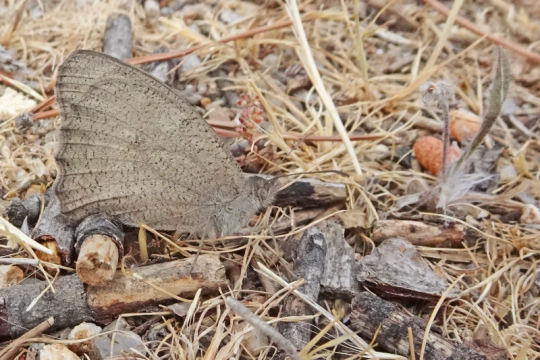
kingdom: Animalia
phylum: Arthropoda
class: Insecta
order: Lepidoptera
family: Nymphalidae
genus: Hyponephele
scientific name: Hyponephele lupinus
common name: Oriental Meadow Brown
